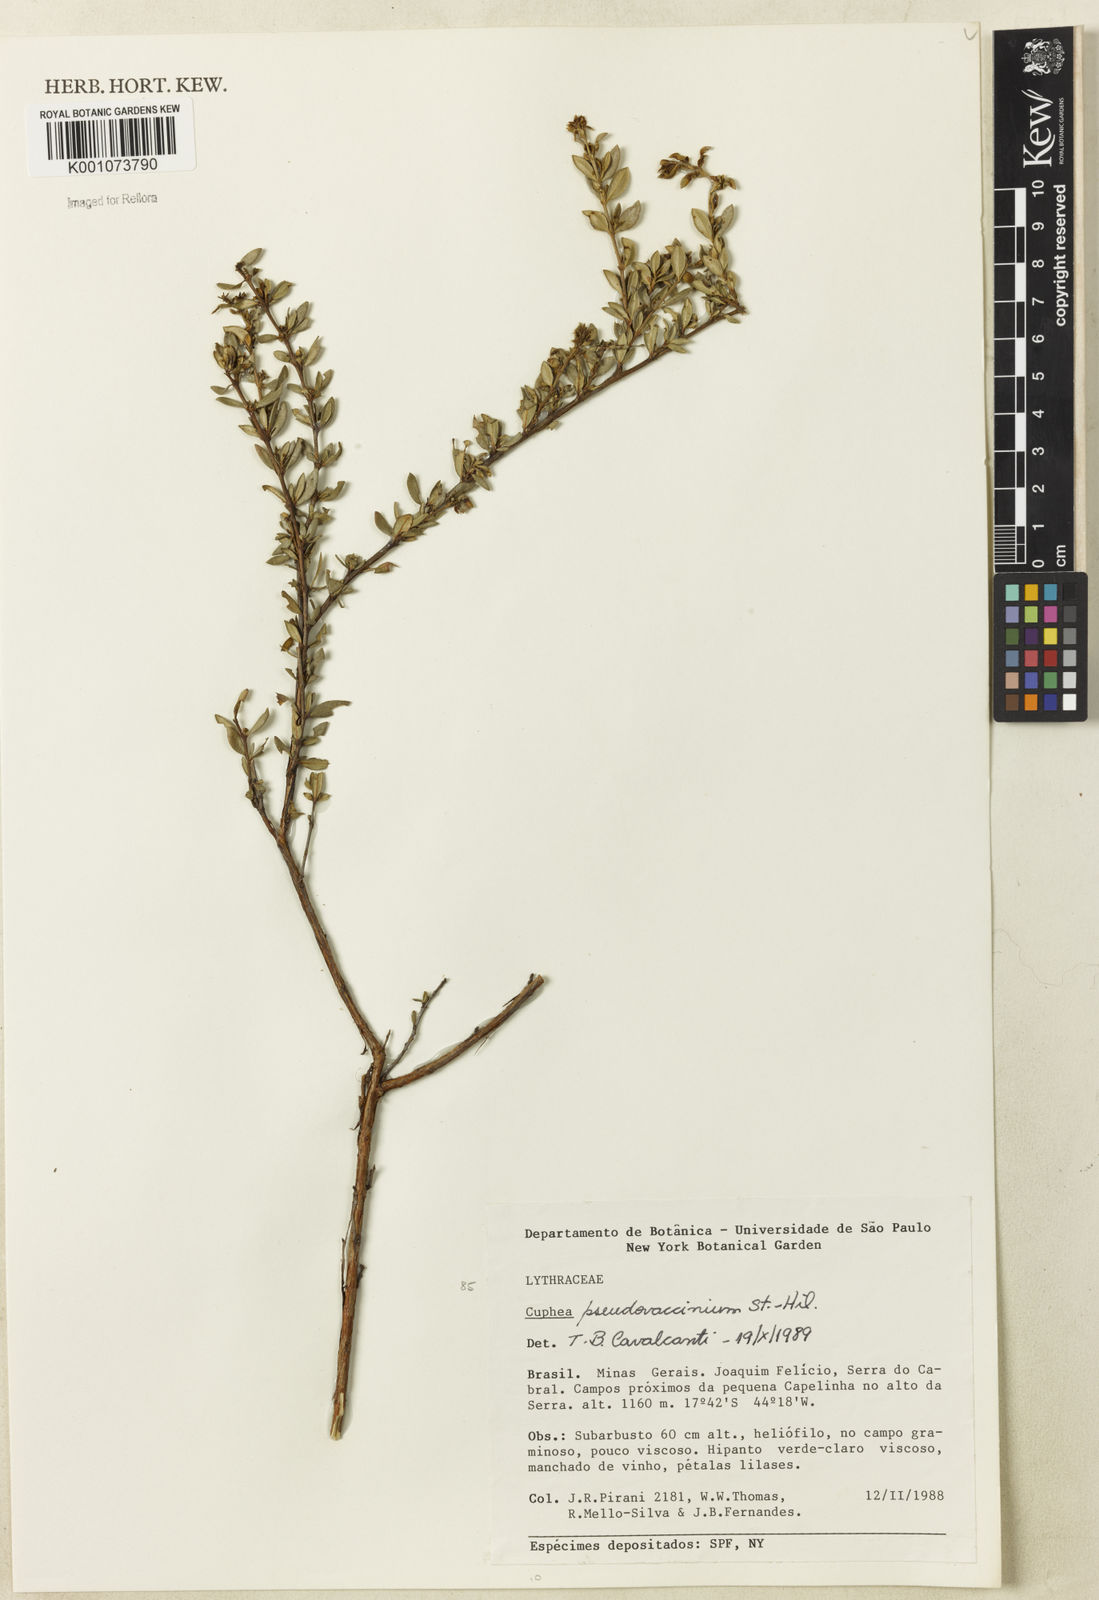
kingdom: Plantae
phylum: Tracheophyta
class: Magnoliopsida
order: Myrtales
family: Lythraceae
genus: Cuphea
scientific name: Cuphea pseudovaccinium
